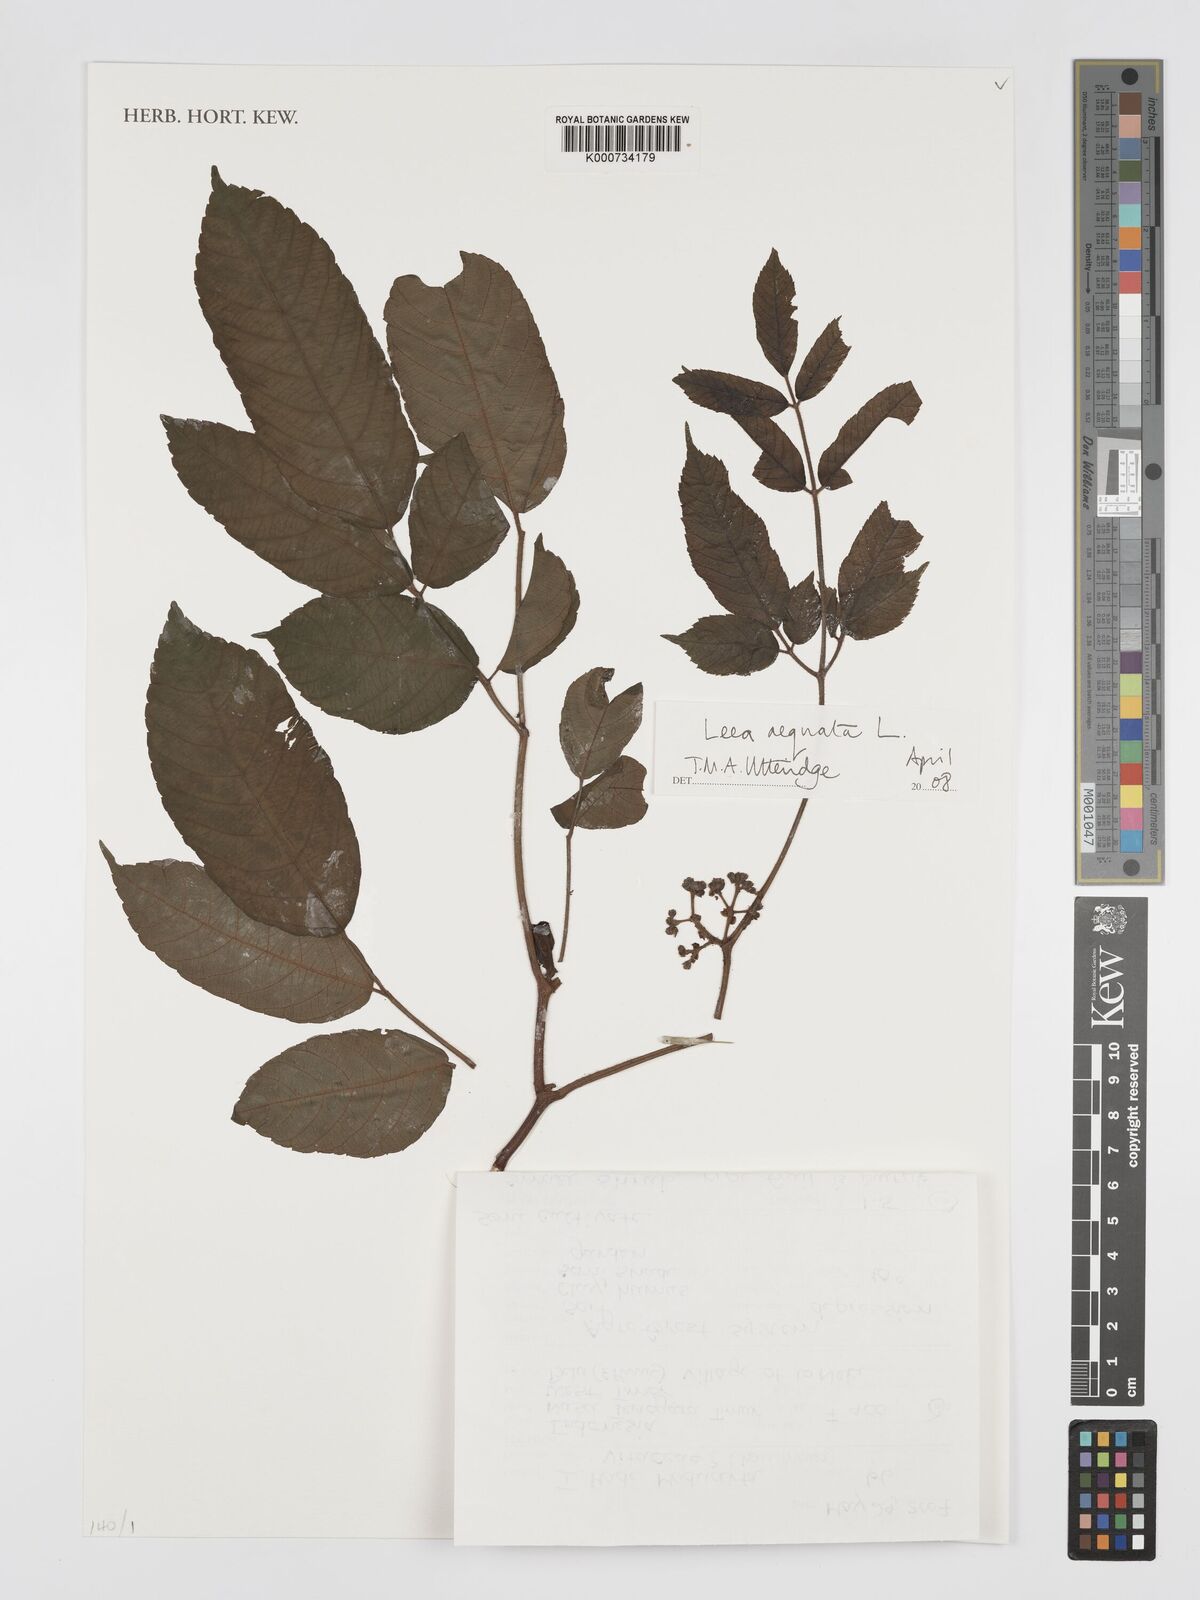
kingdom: Plantae
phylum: Tracheophyta
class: Magnoliopsida
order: Vitales
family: Vitaceae
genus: Leea
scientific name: Leea aequata
